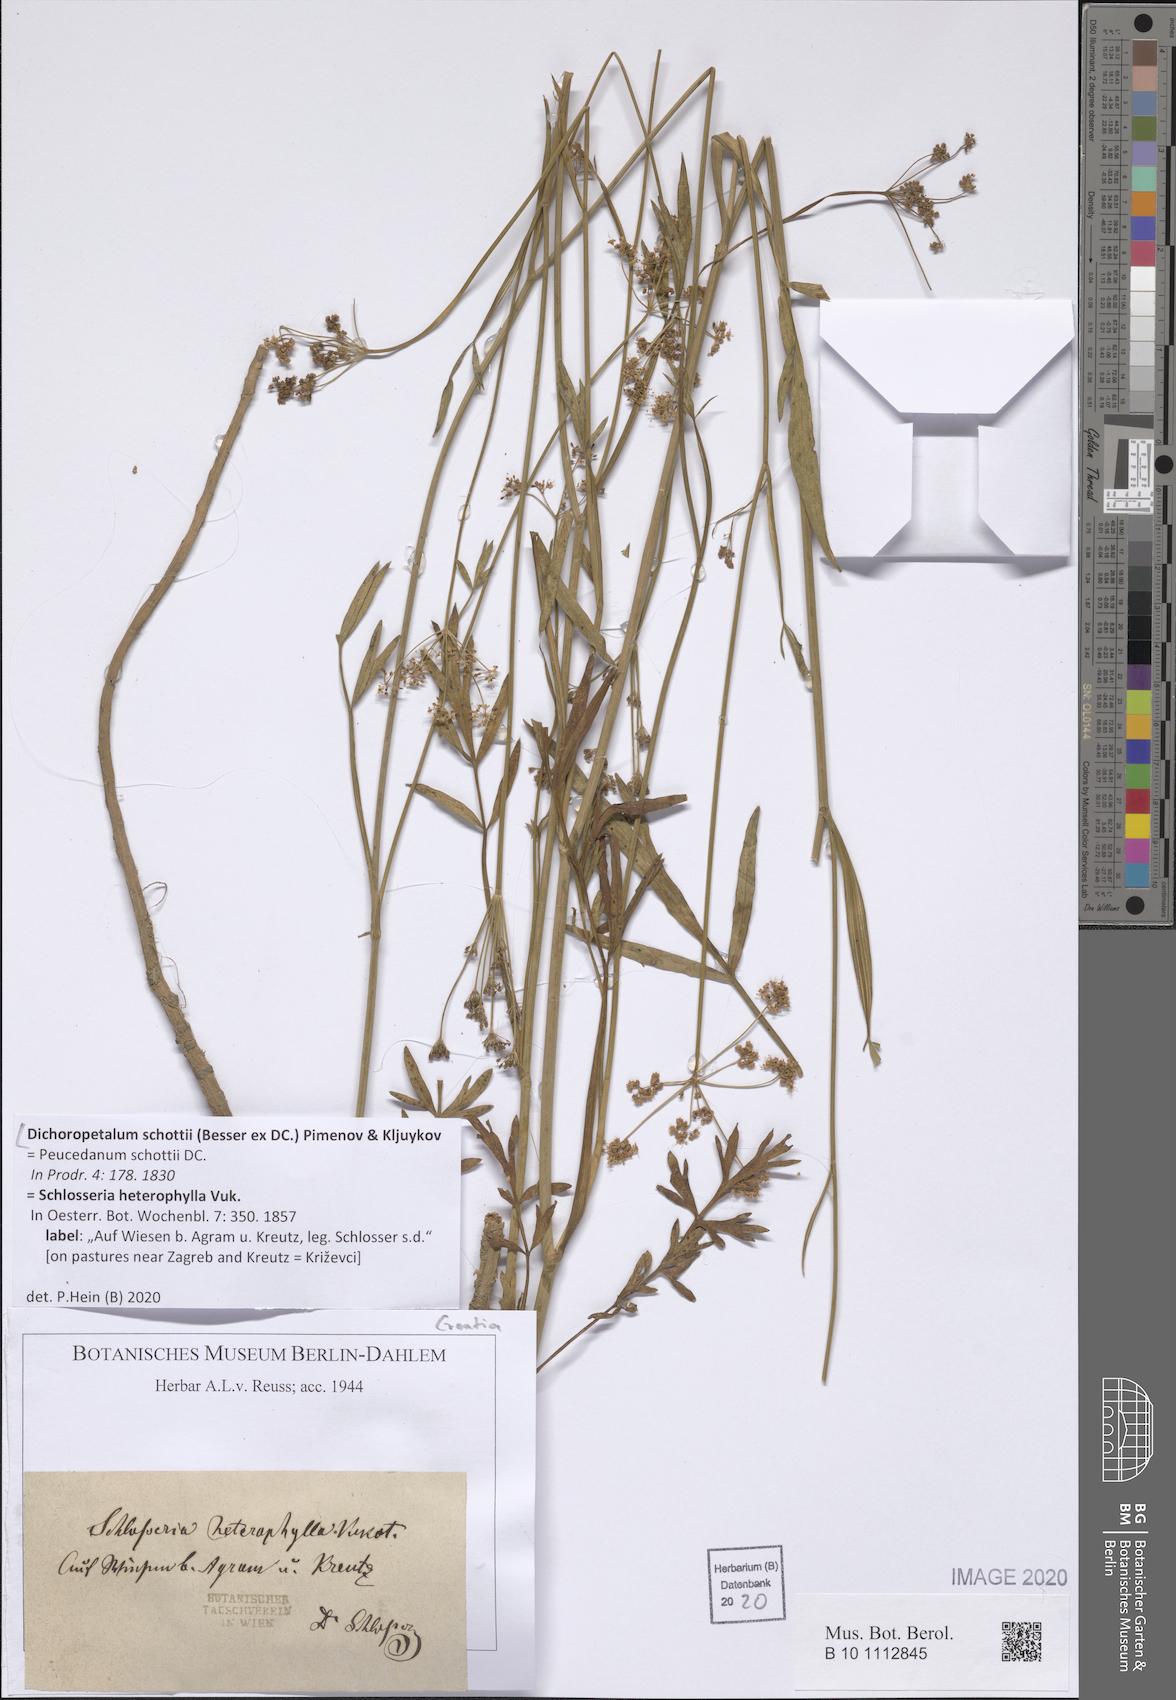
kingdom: Plantae
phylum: Tracheophyta
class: Magnoliopsida
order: Apiales
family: Apiaceae
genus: Dichoropetalum
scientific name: Dichoropetalum schottii
